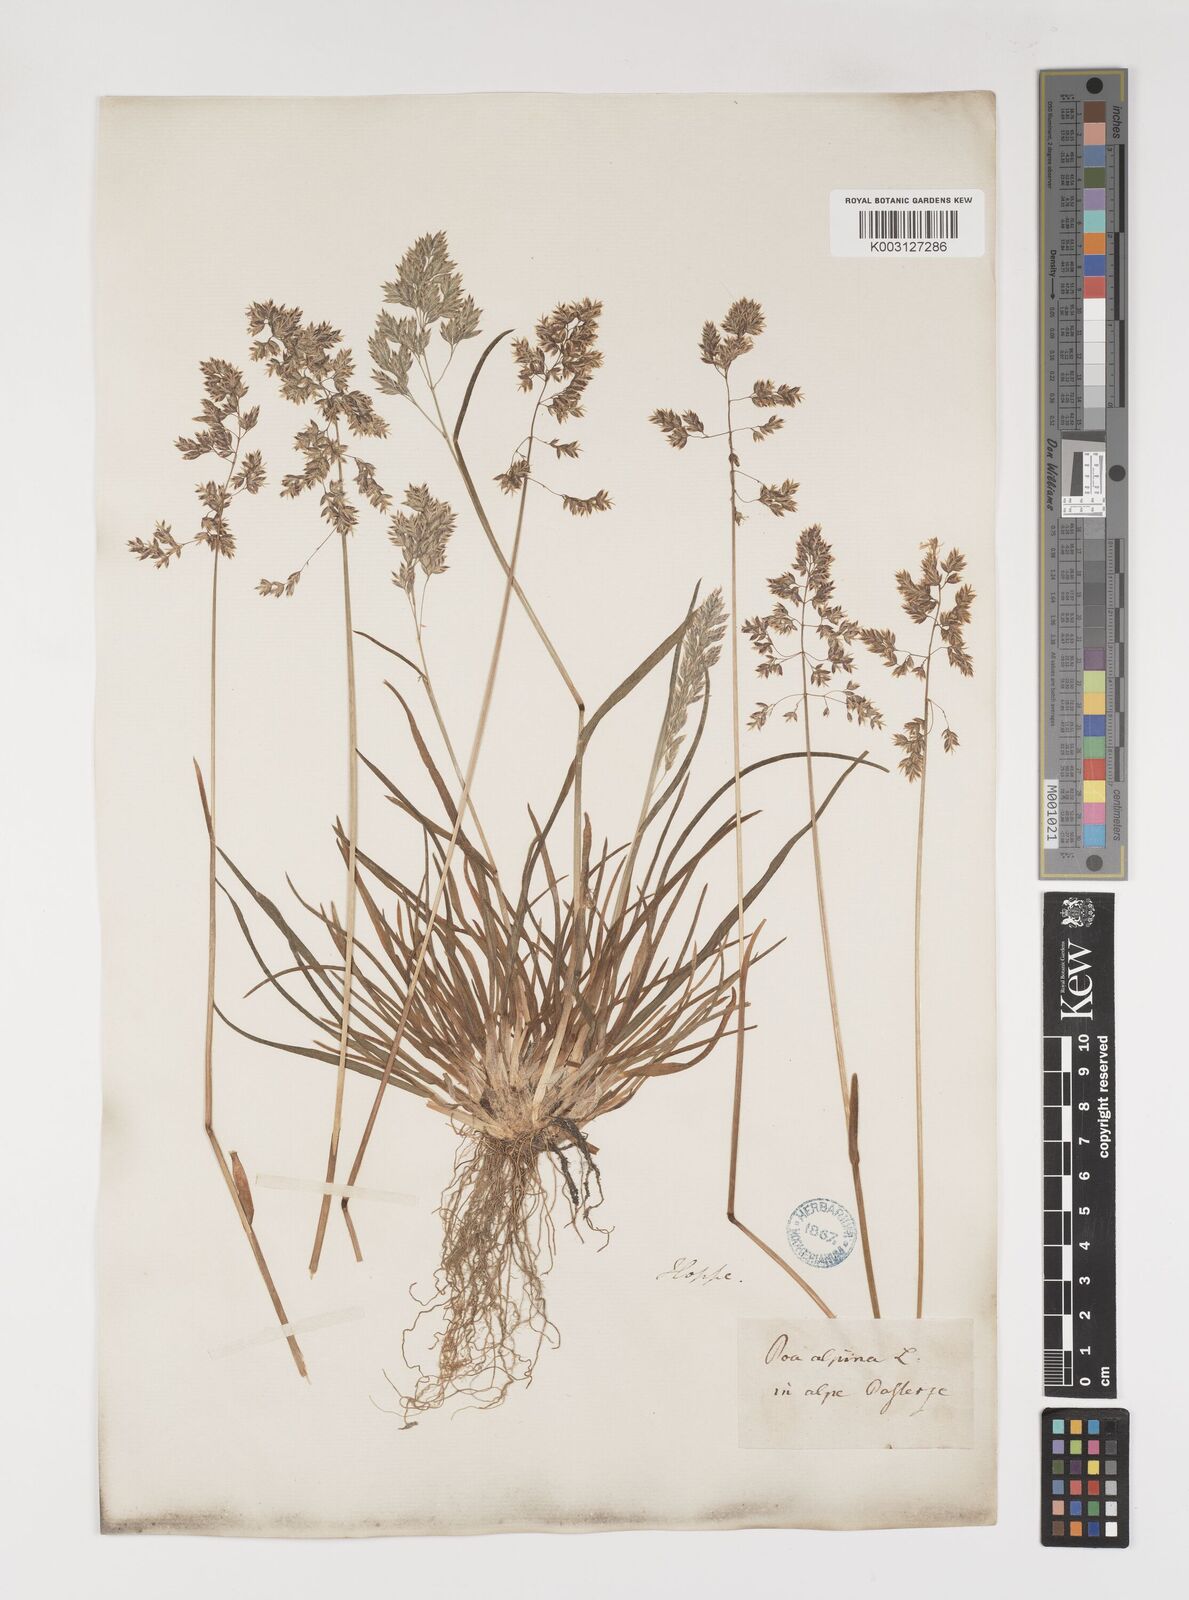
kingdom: Plantae
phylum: Tracheophyta
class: Liliopsida
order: Poales
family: Poaceae
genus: Poa
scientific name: Poa alpina
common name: Alpine bluegrass
